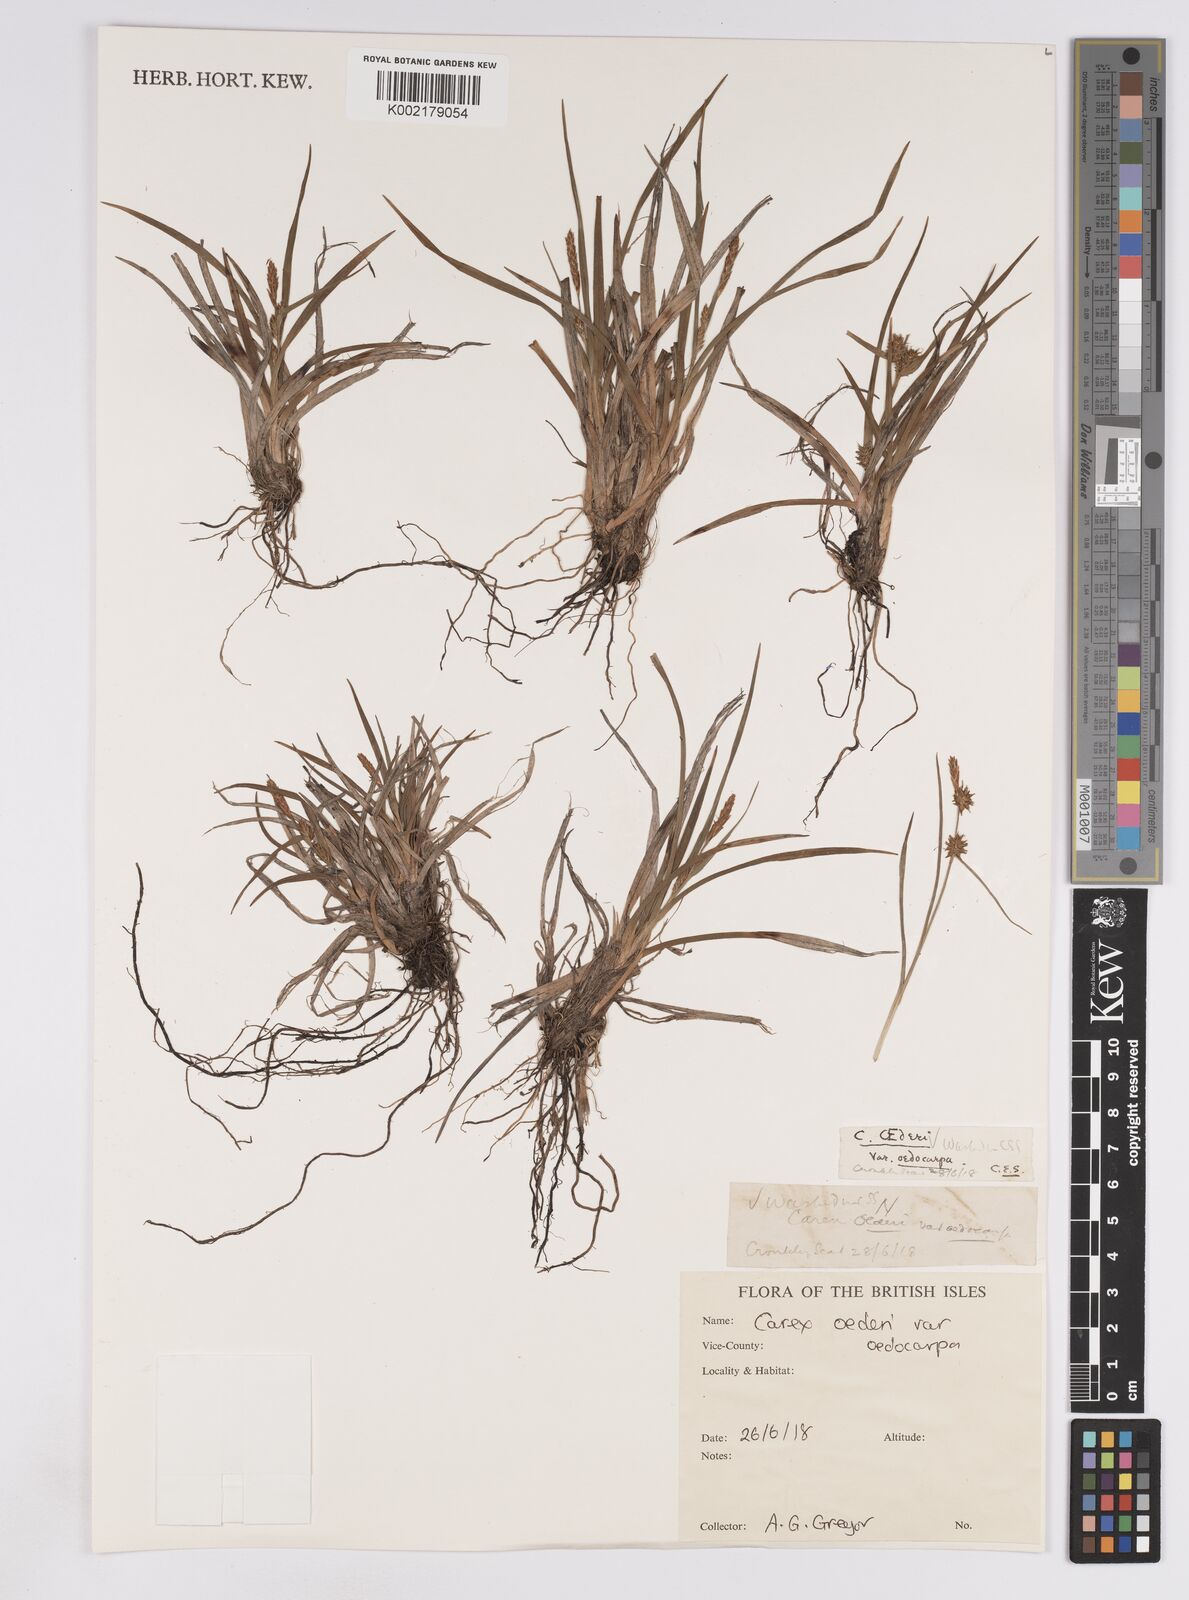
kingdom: Plantae
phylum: Tracheophyta
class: Liliopsida
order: Poales
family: Cyperaceae
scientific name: Cyperaceae
